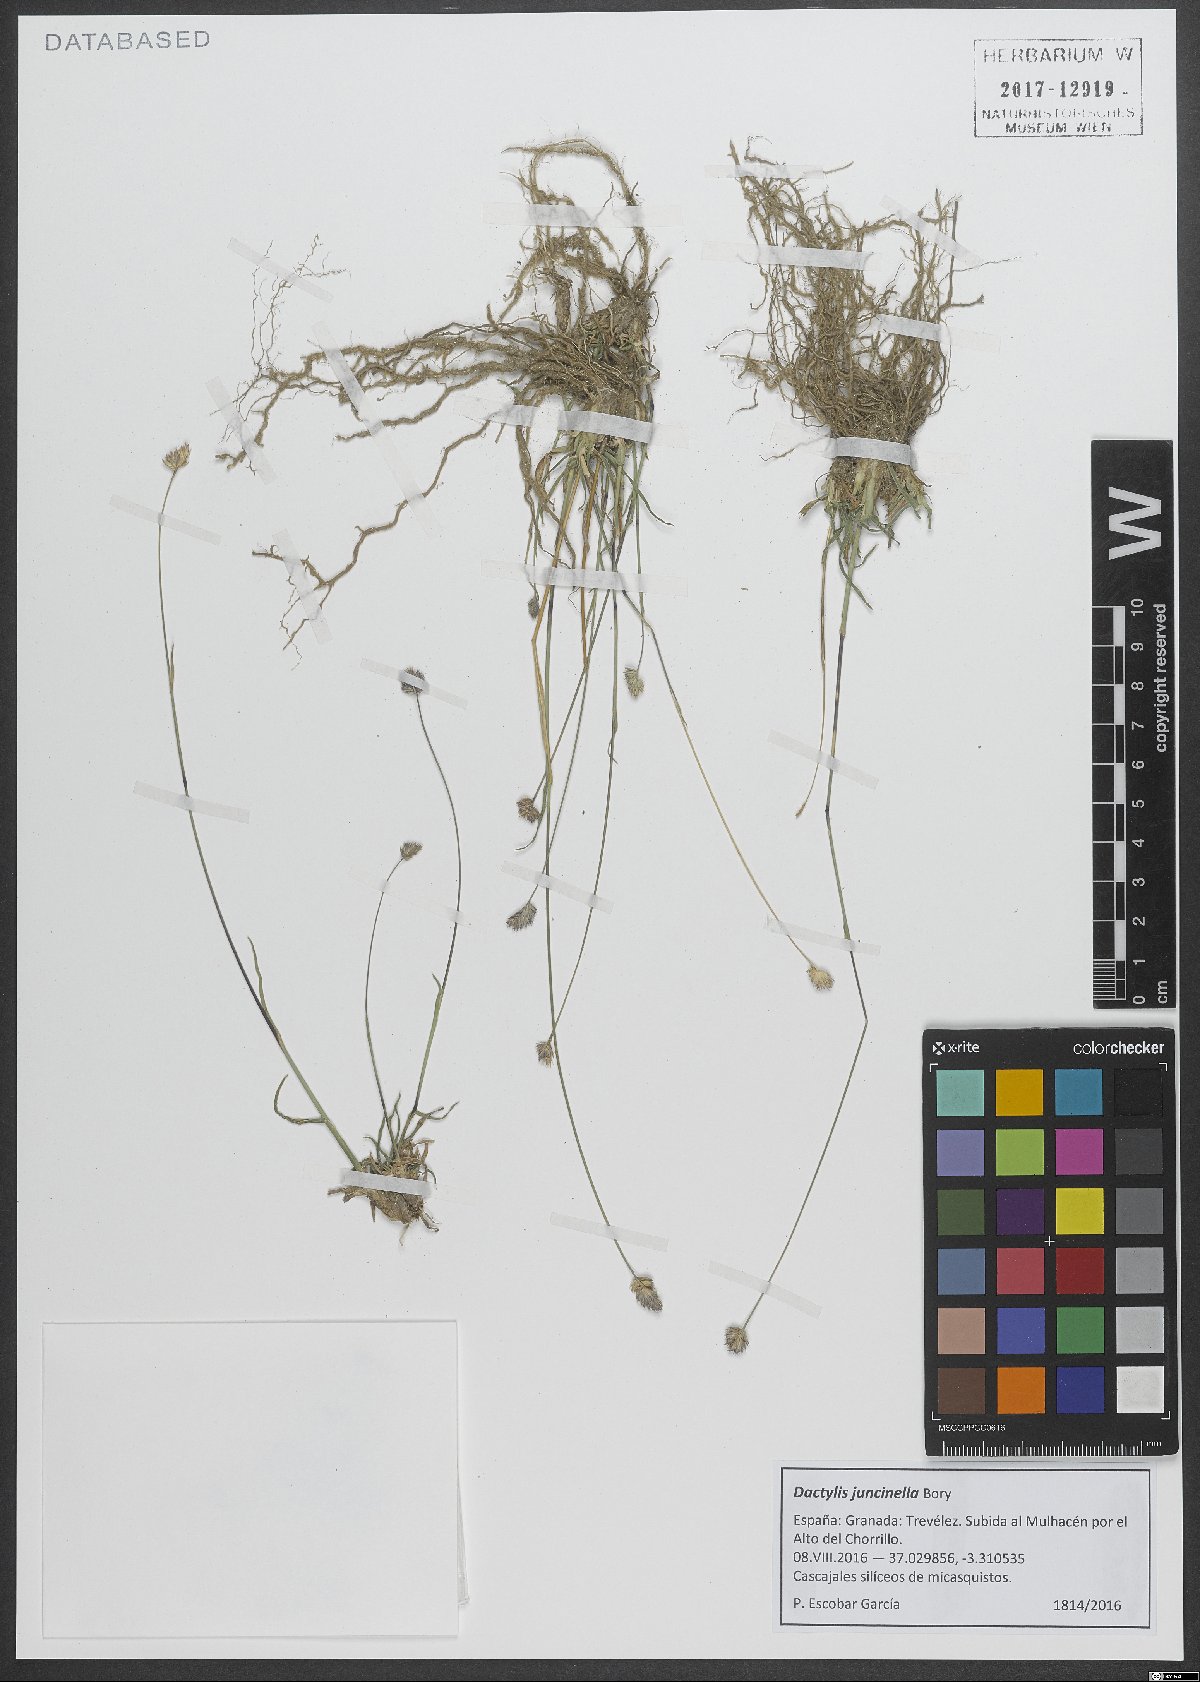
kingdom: Plantae
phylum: Tracheophyta
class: Liliopsida
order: Poales
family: Poaceae
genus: Dactylis
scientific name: Dactylis glomerata
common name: Orchardgrass
